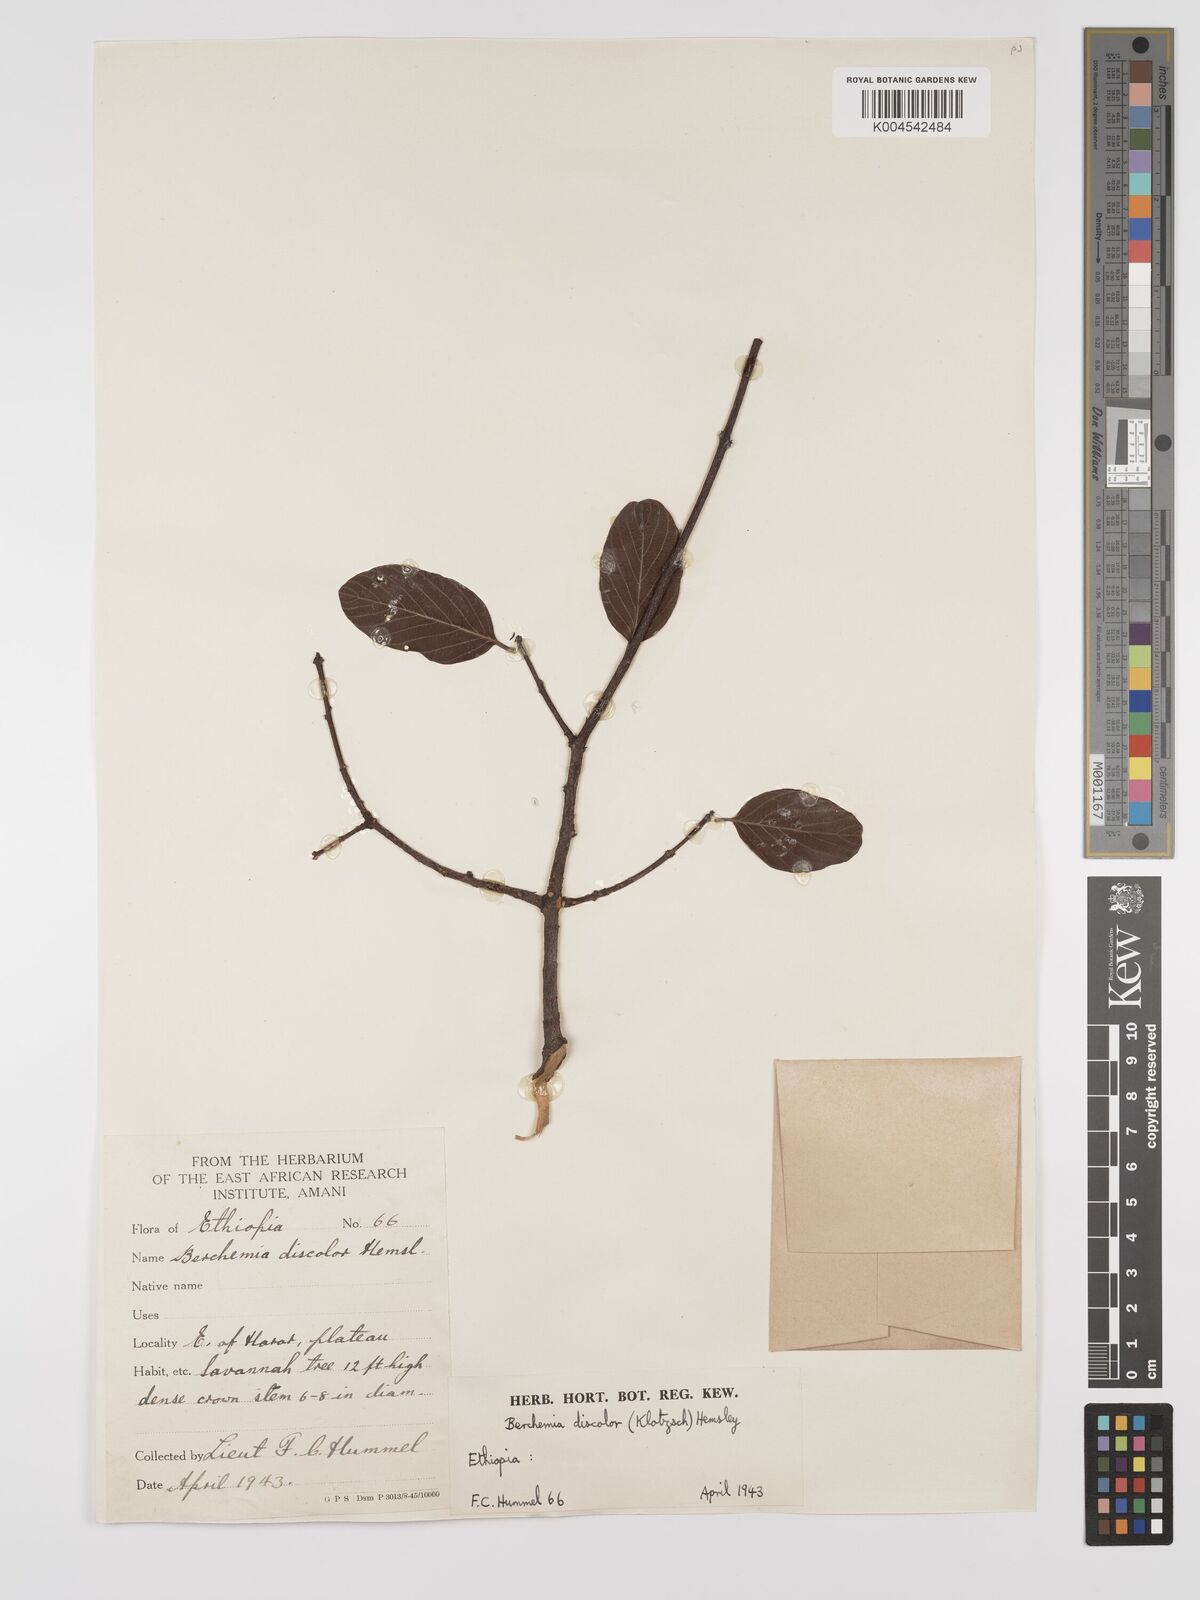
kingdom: Plantae
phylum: Tracheophyta
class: Magnoliopsida
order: Rosales
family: Rhamnaceae
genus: Phyllogeiton
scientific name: Phyllogeiton discolor
